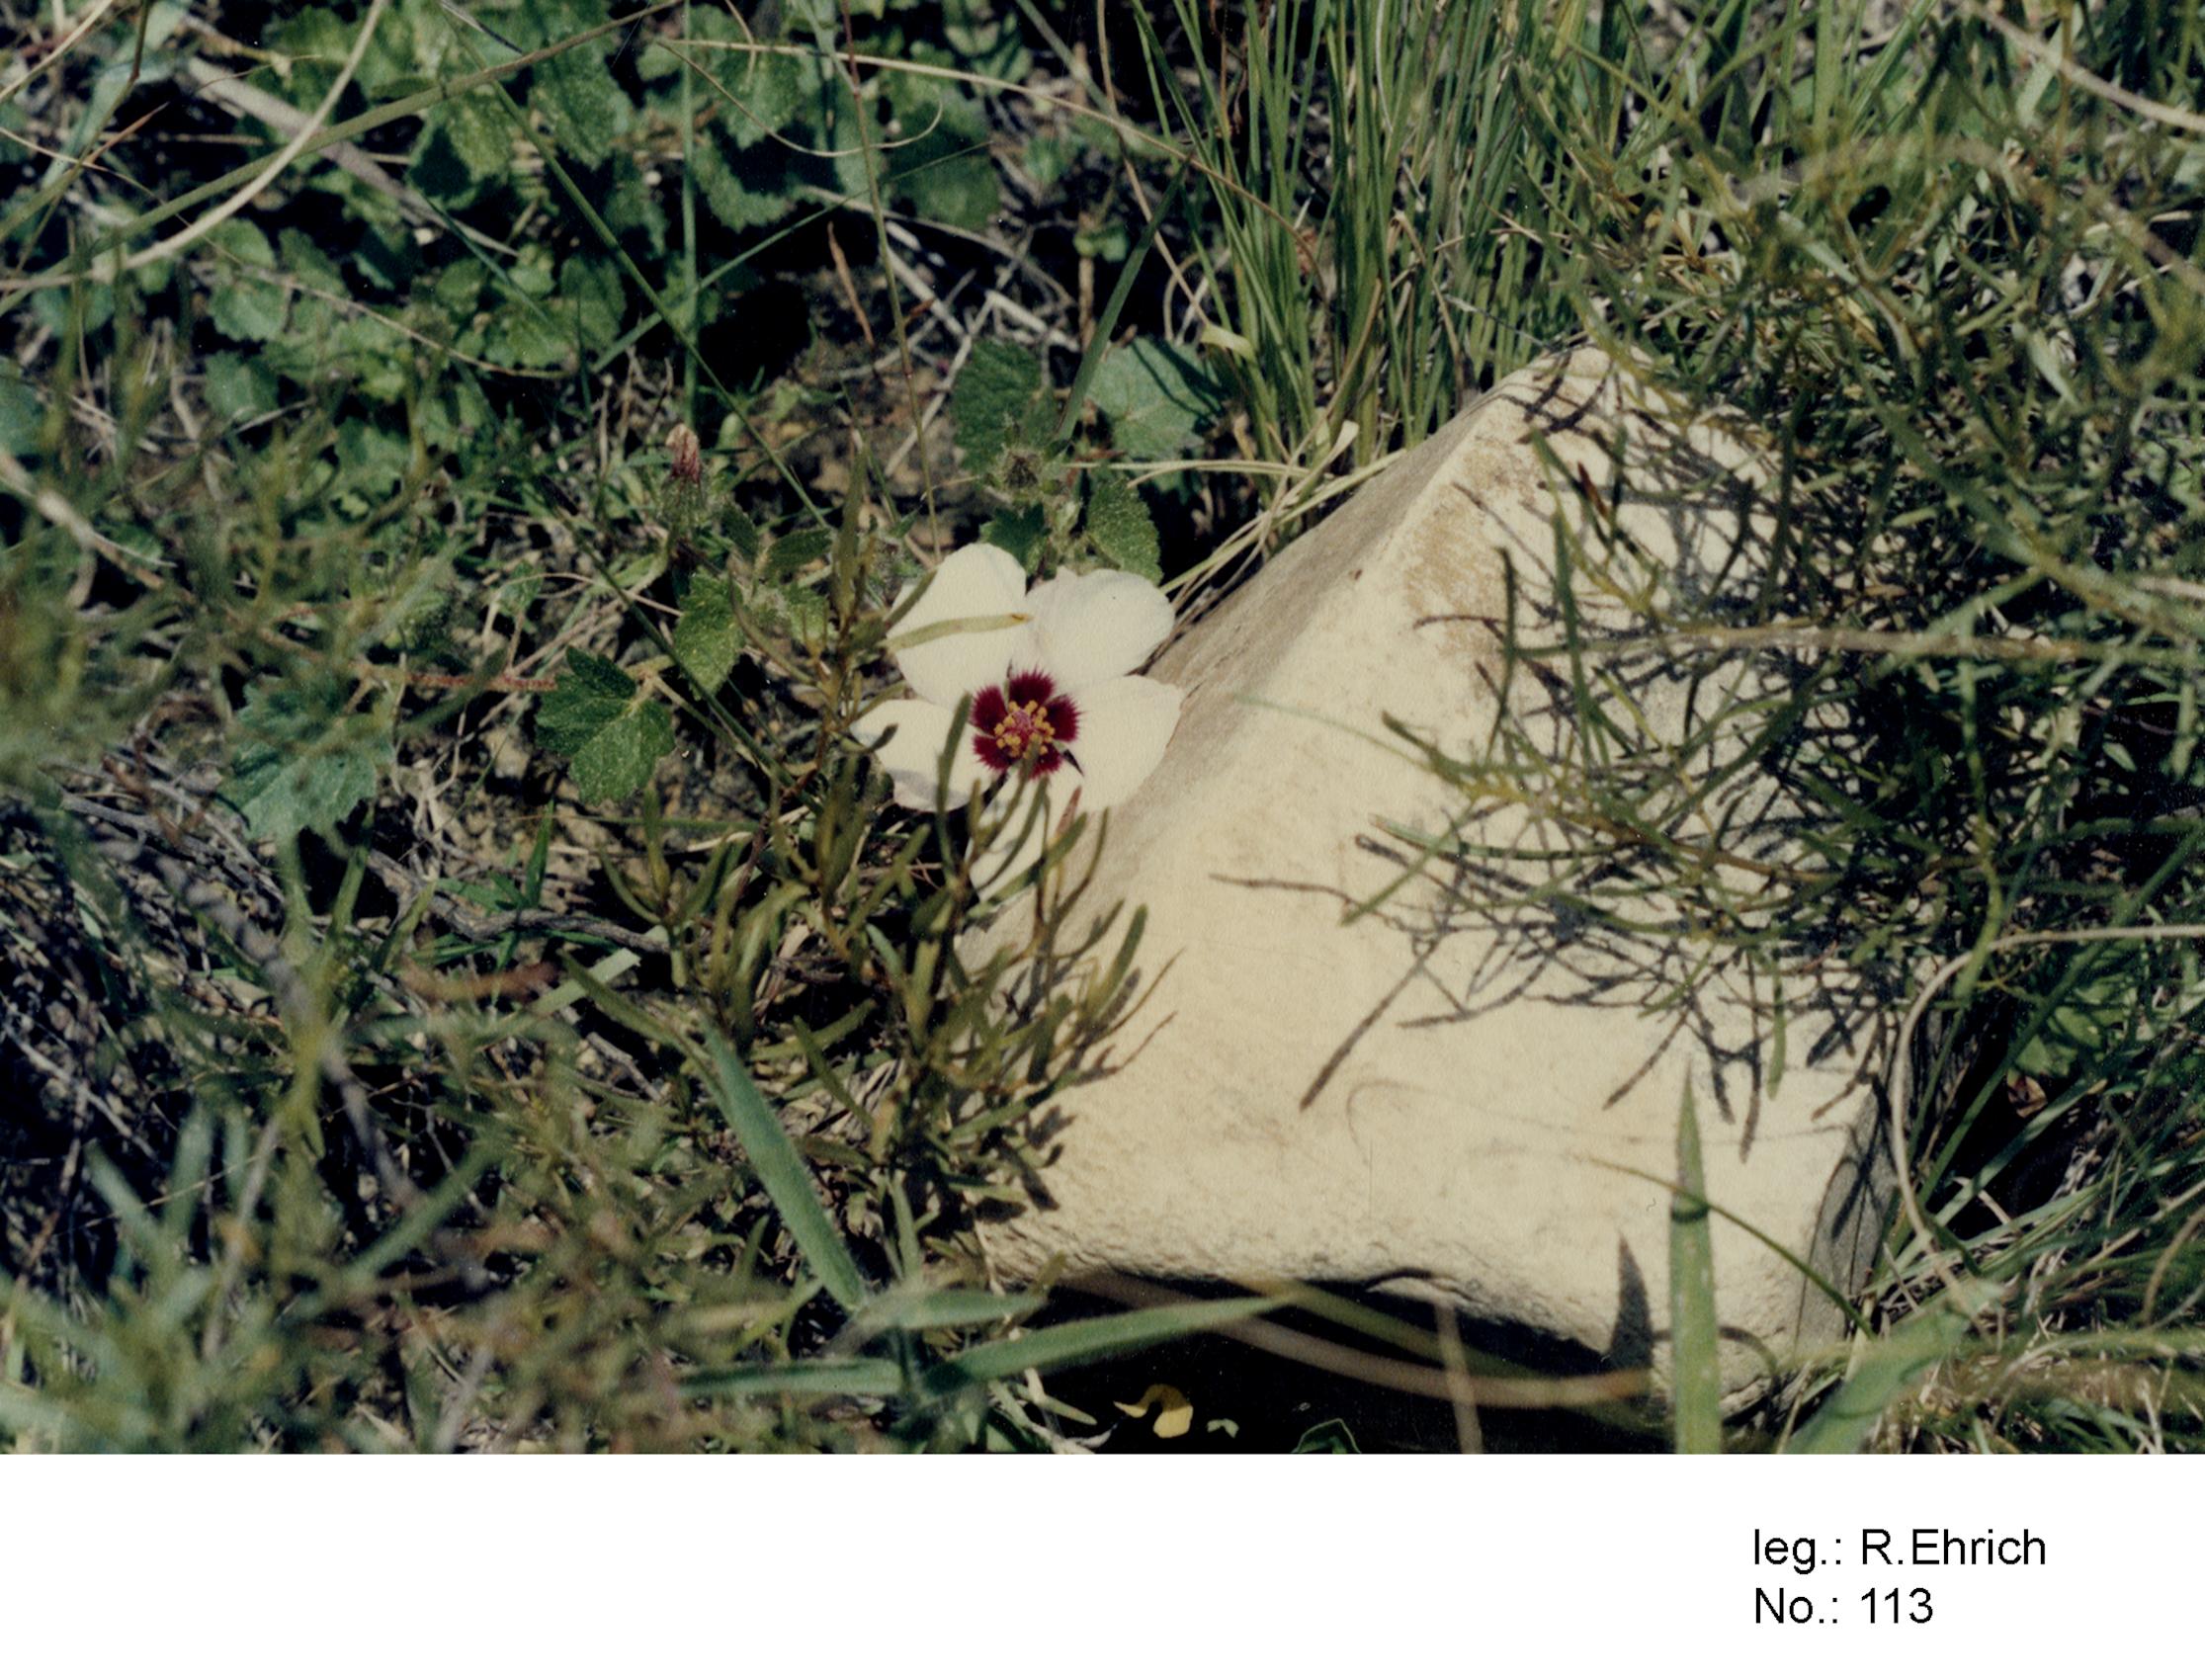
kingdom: Plantae
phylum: Tracheophyta
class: Magnoliopsida
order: Malvales
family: Malvaceae
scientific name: Malvaceae
